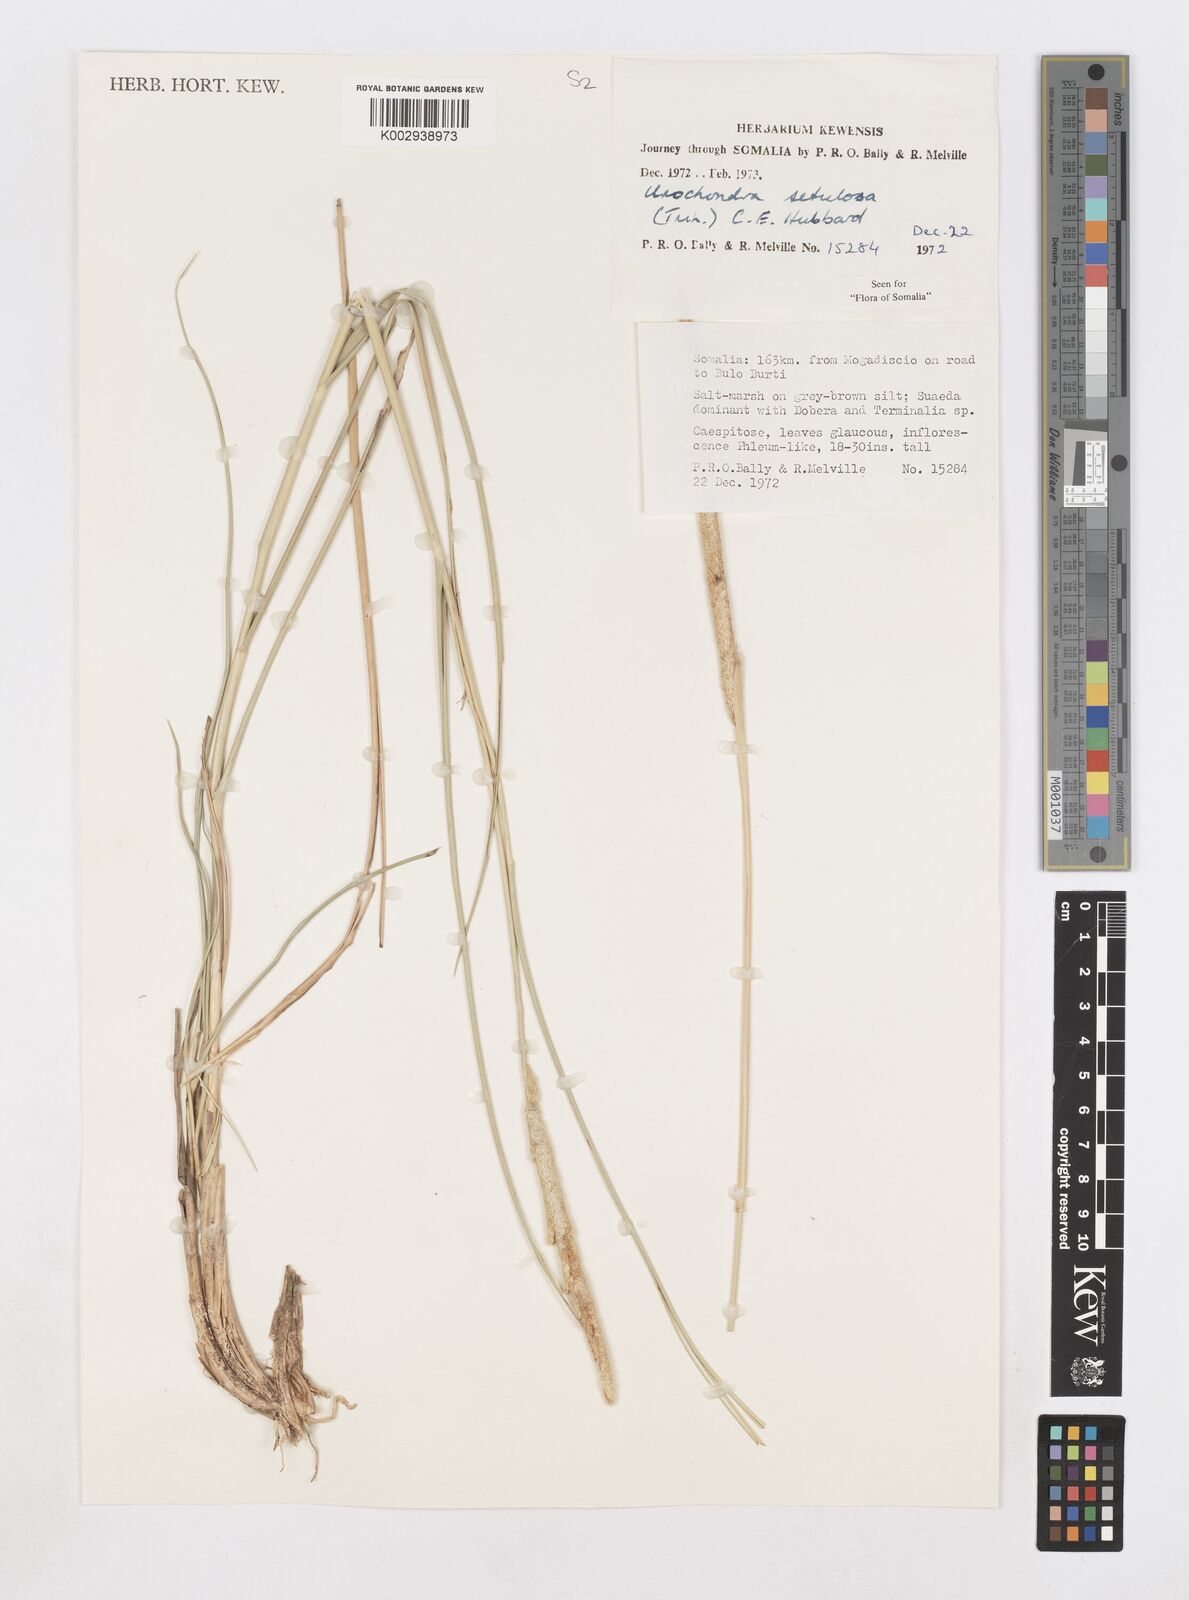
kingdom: Plantae
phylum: Tracheophyta
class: Liliopsida
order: Poales
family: Poaceae
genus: Urochondra
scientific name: Urochondra setulosa
